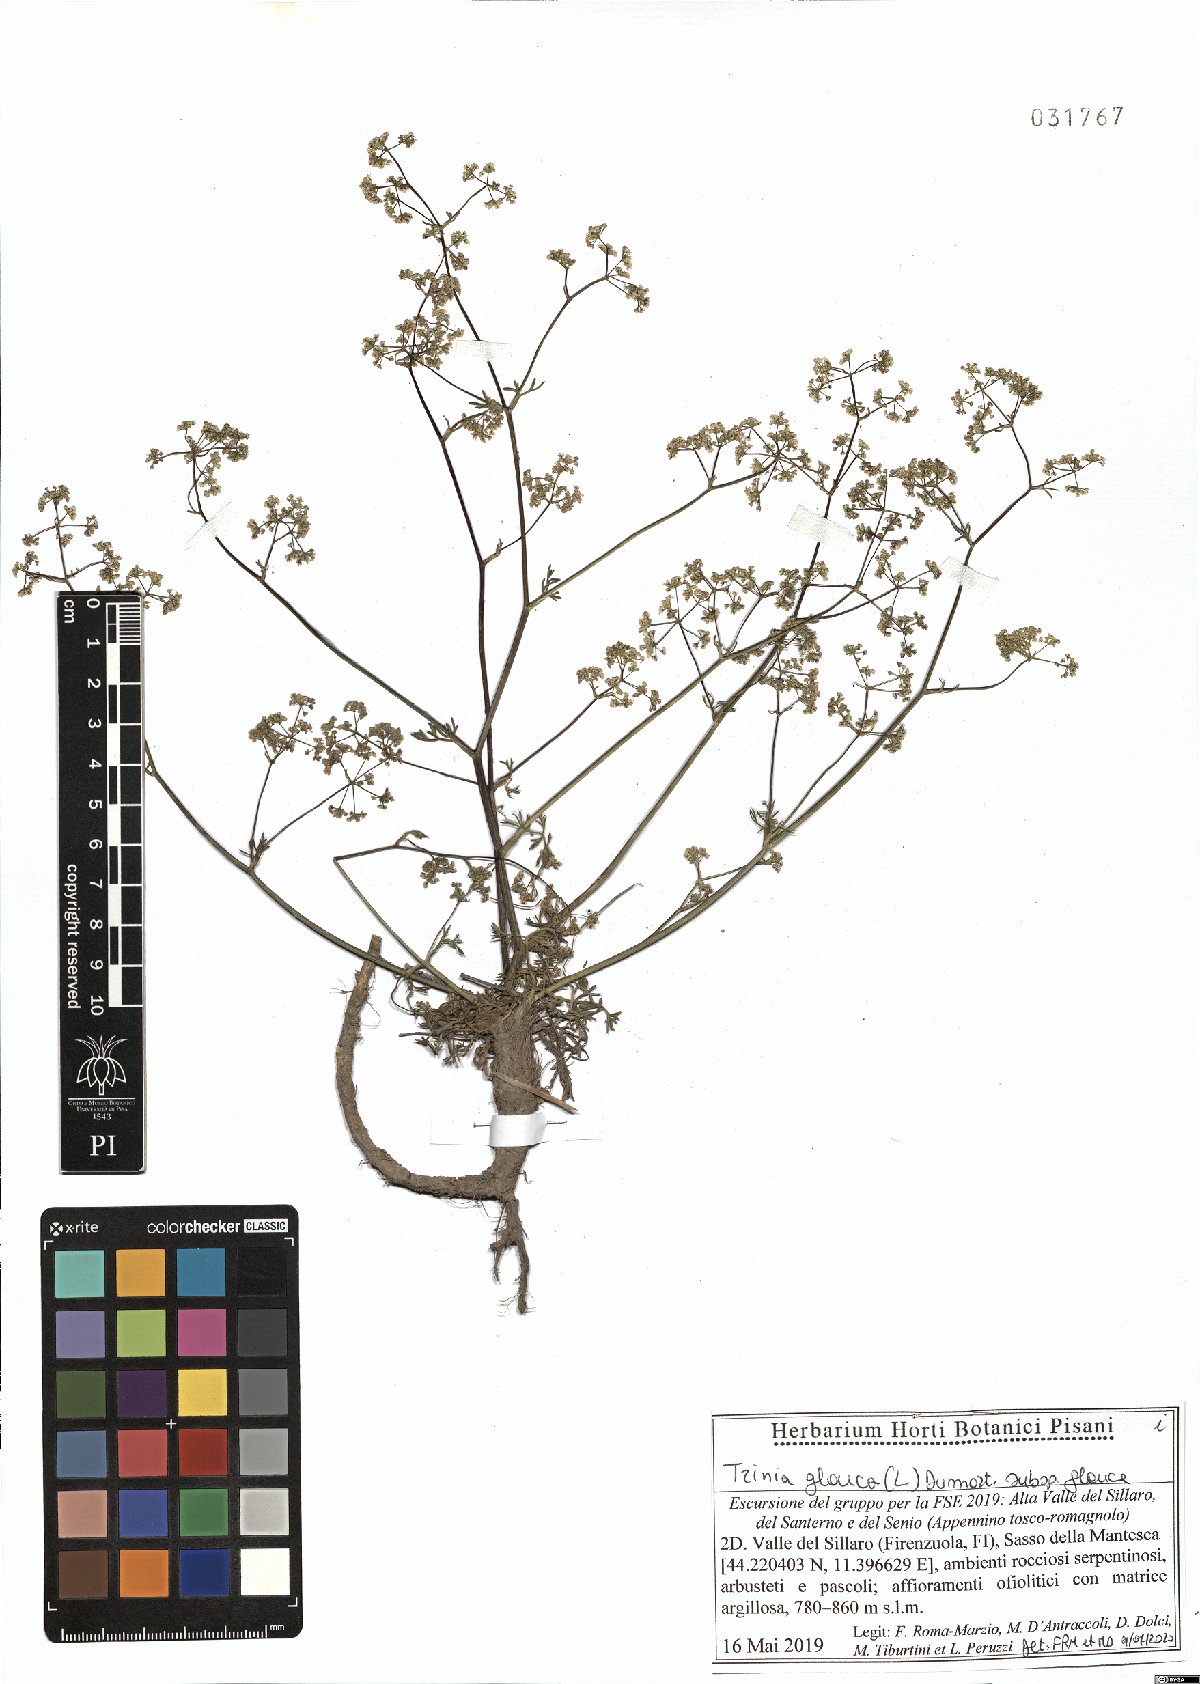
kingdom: Plantae
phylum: Tracheophyta
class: Magnoliopsida
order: Apiales
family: Apiaceae
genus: Trinia
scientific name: Trinia glauca
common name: Honewort
